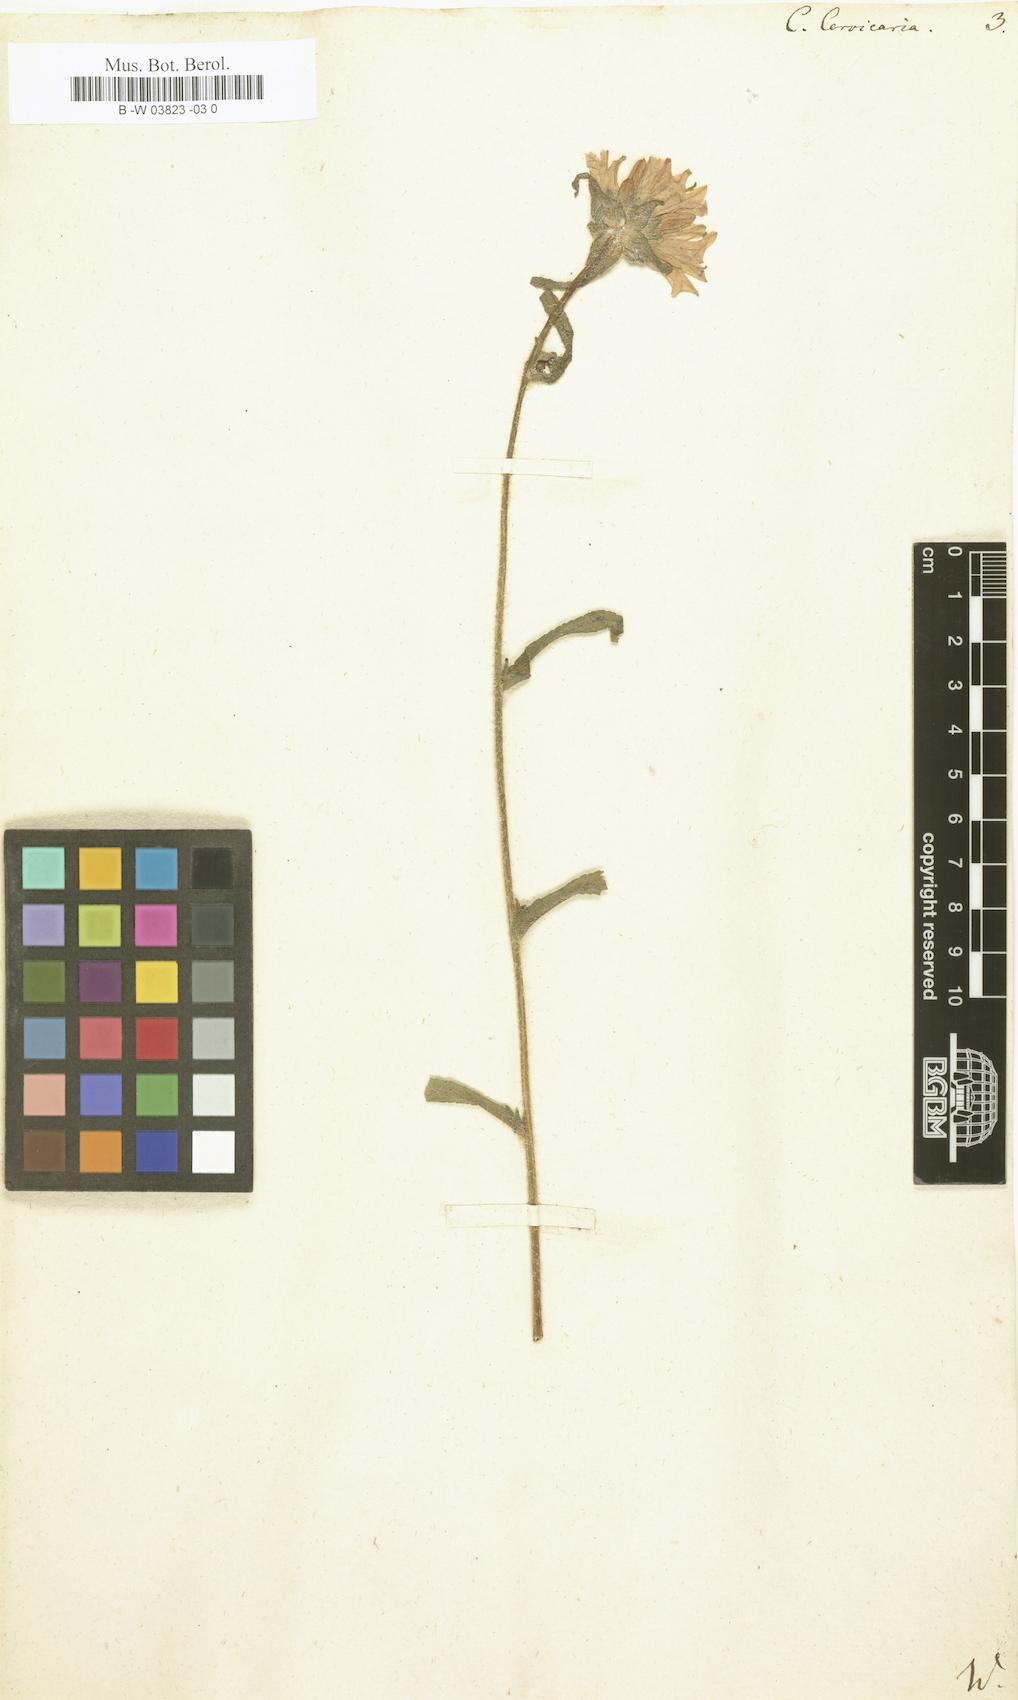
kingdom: Plantae
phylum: Tracheophyta
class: Magnoliopsida
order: Asterales
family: Campanulaceae
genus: Campanula
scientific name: Campanula cervicaria
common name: Bristly bellflower
